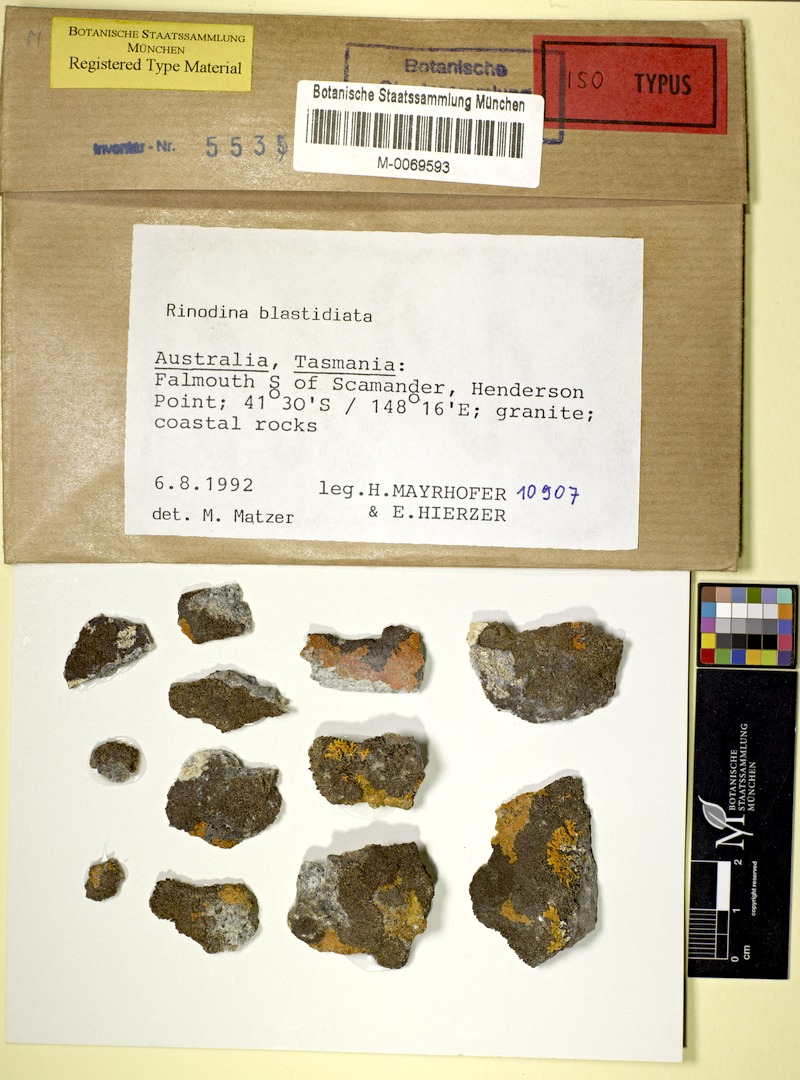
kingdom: Fungi
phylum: Ascomycota
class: Lecanoromycetes
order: Caliciales
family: Physciaceae
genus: Rinodina
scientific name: Rinodina blastidiata
